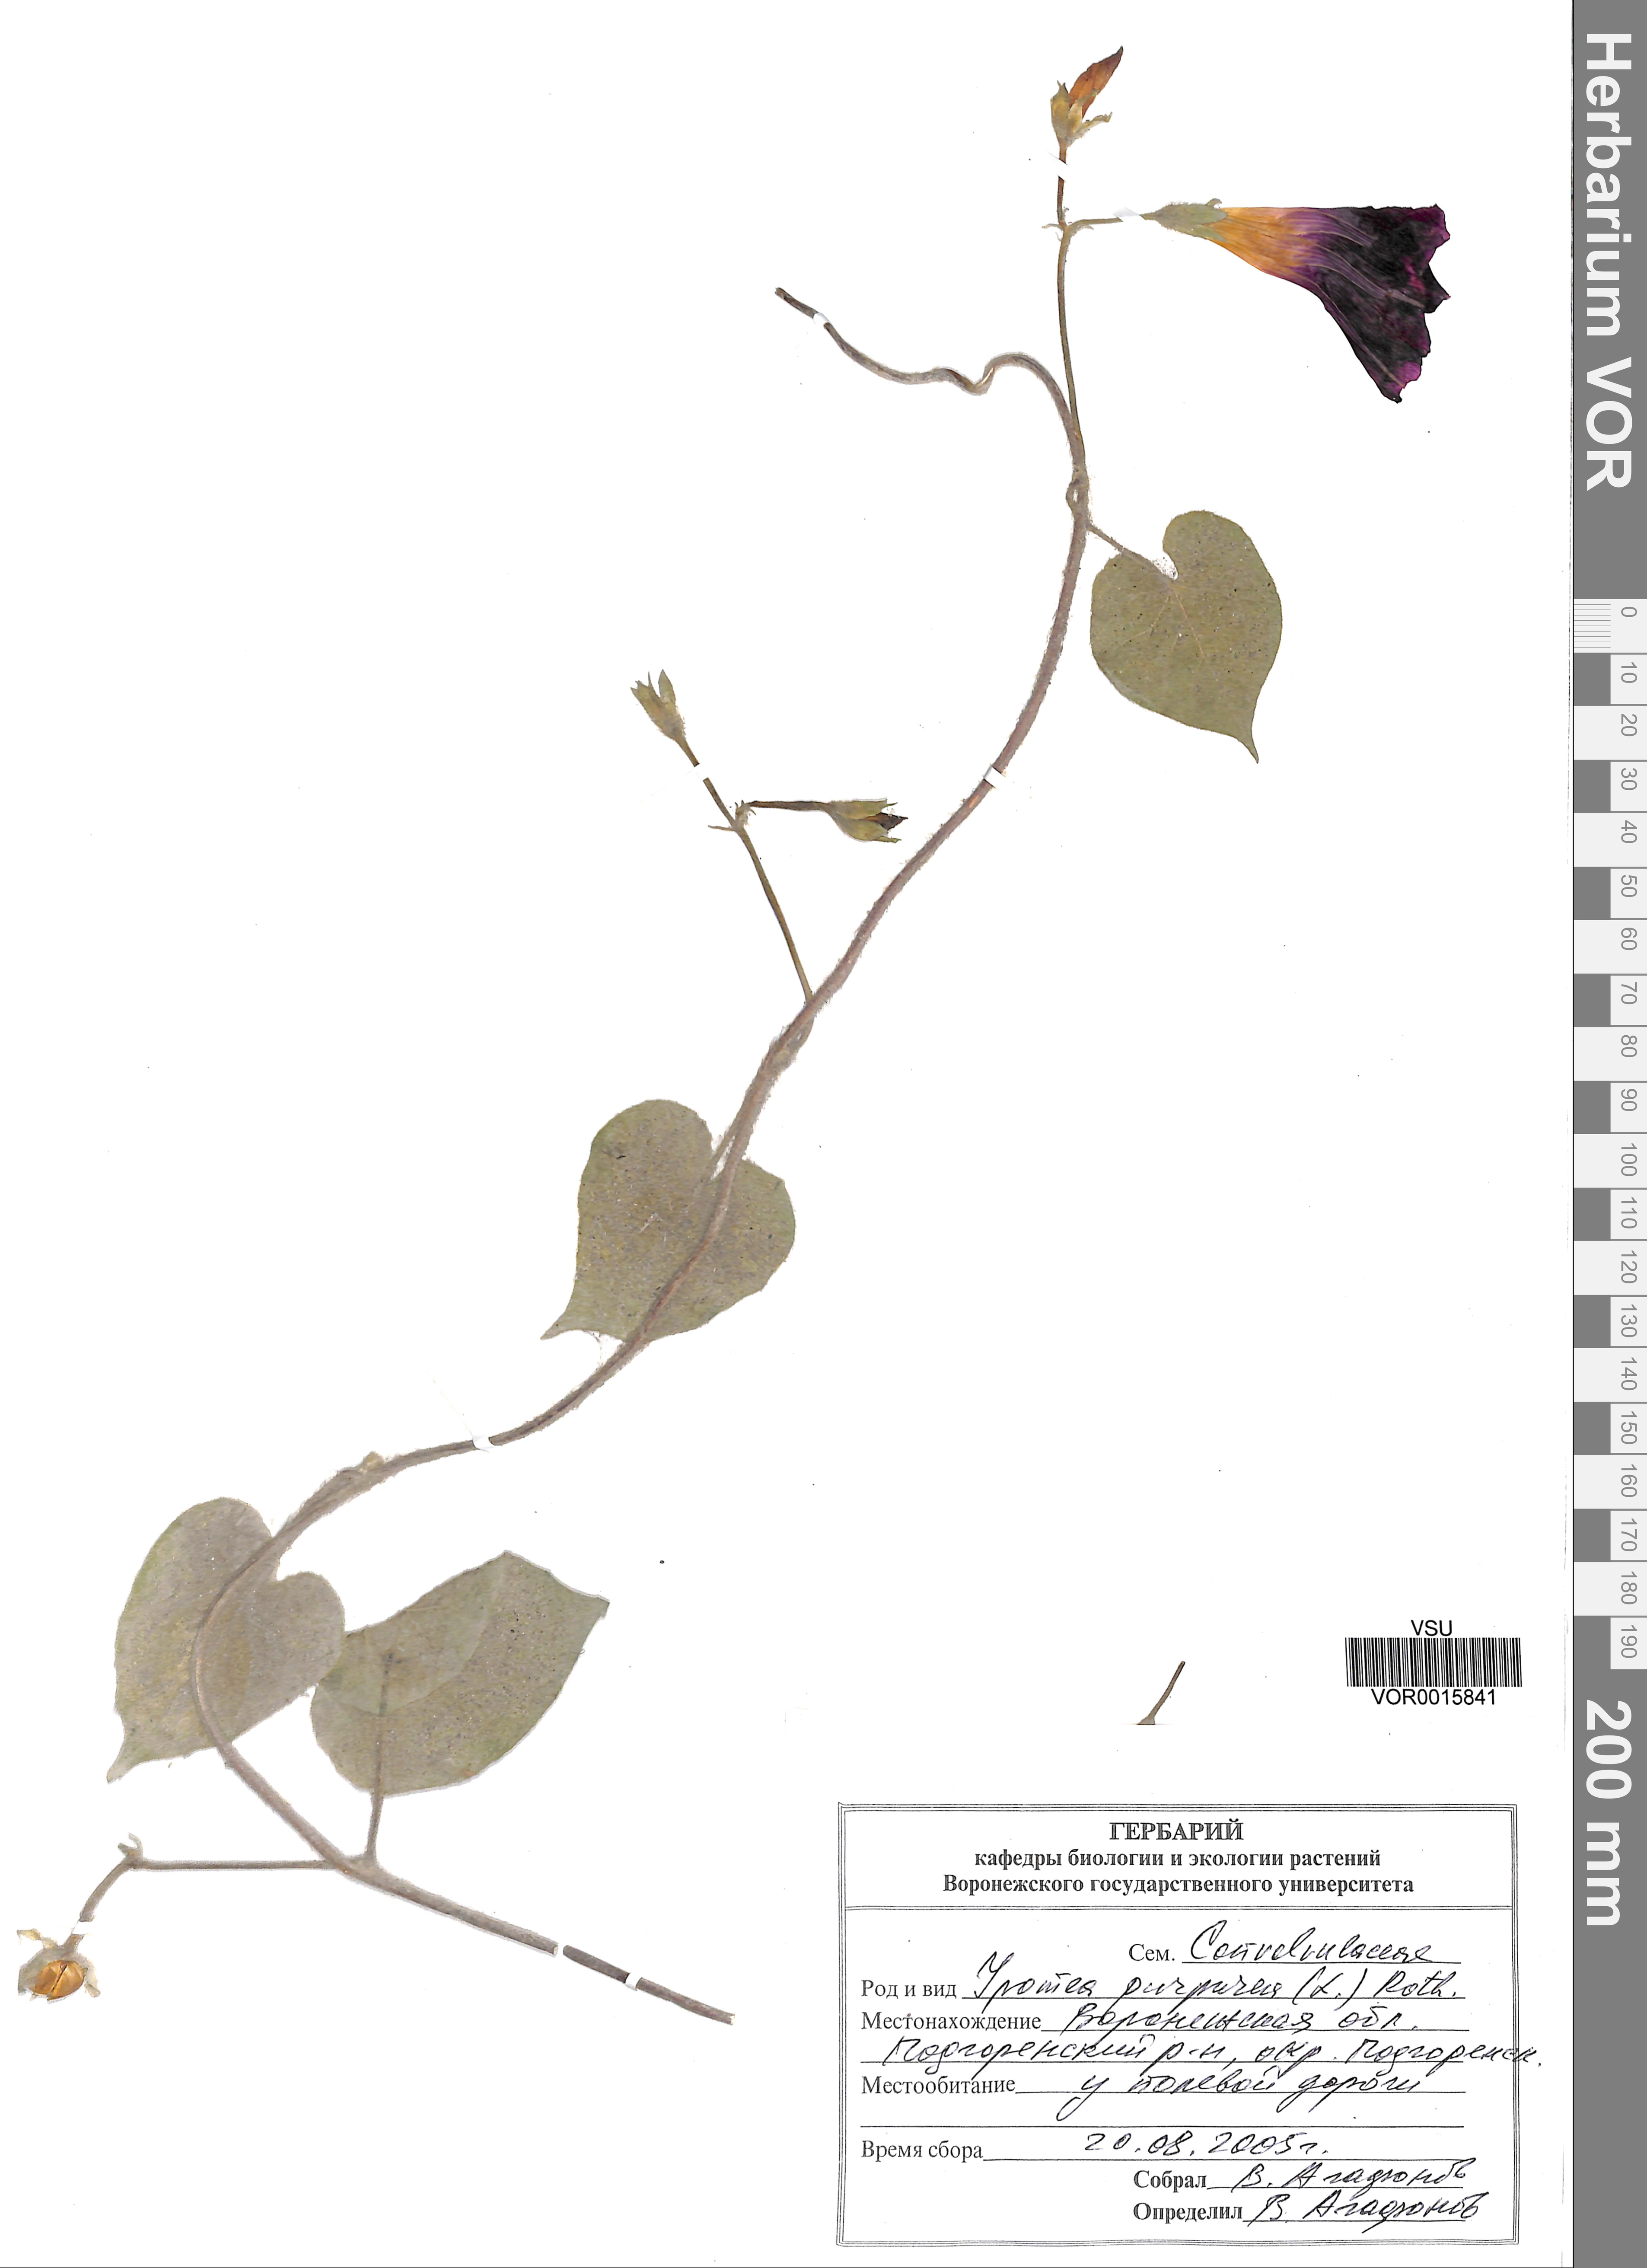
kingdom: Plantae
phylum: Tracheophyta
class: Magnoliopsida
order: Solanales
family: Convolvulaceae
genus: Ipomoea
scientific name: Ipomoea purpurea
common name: Common morning-glory
